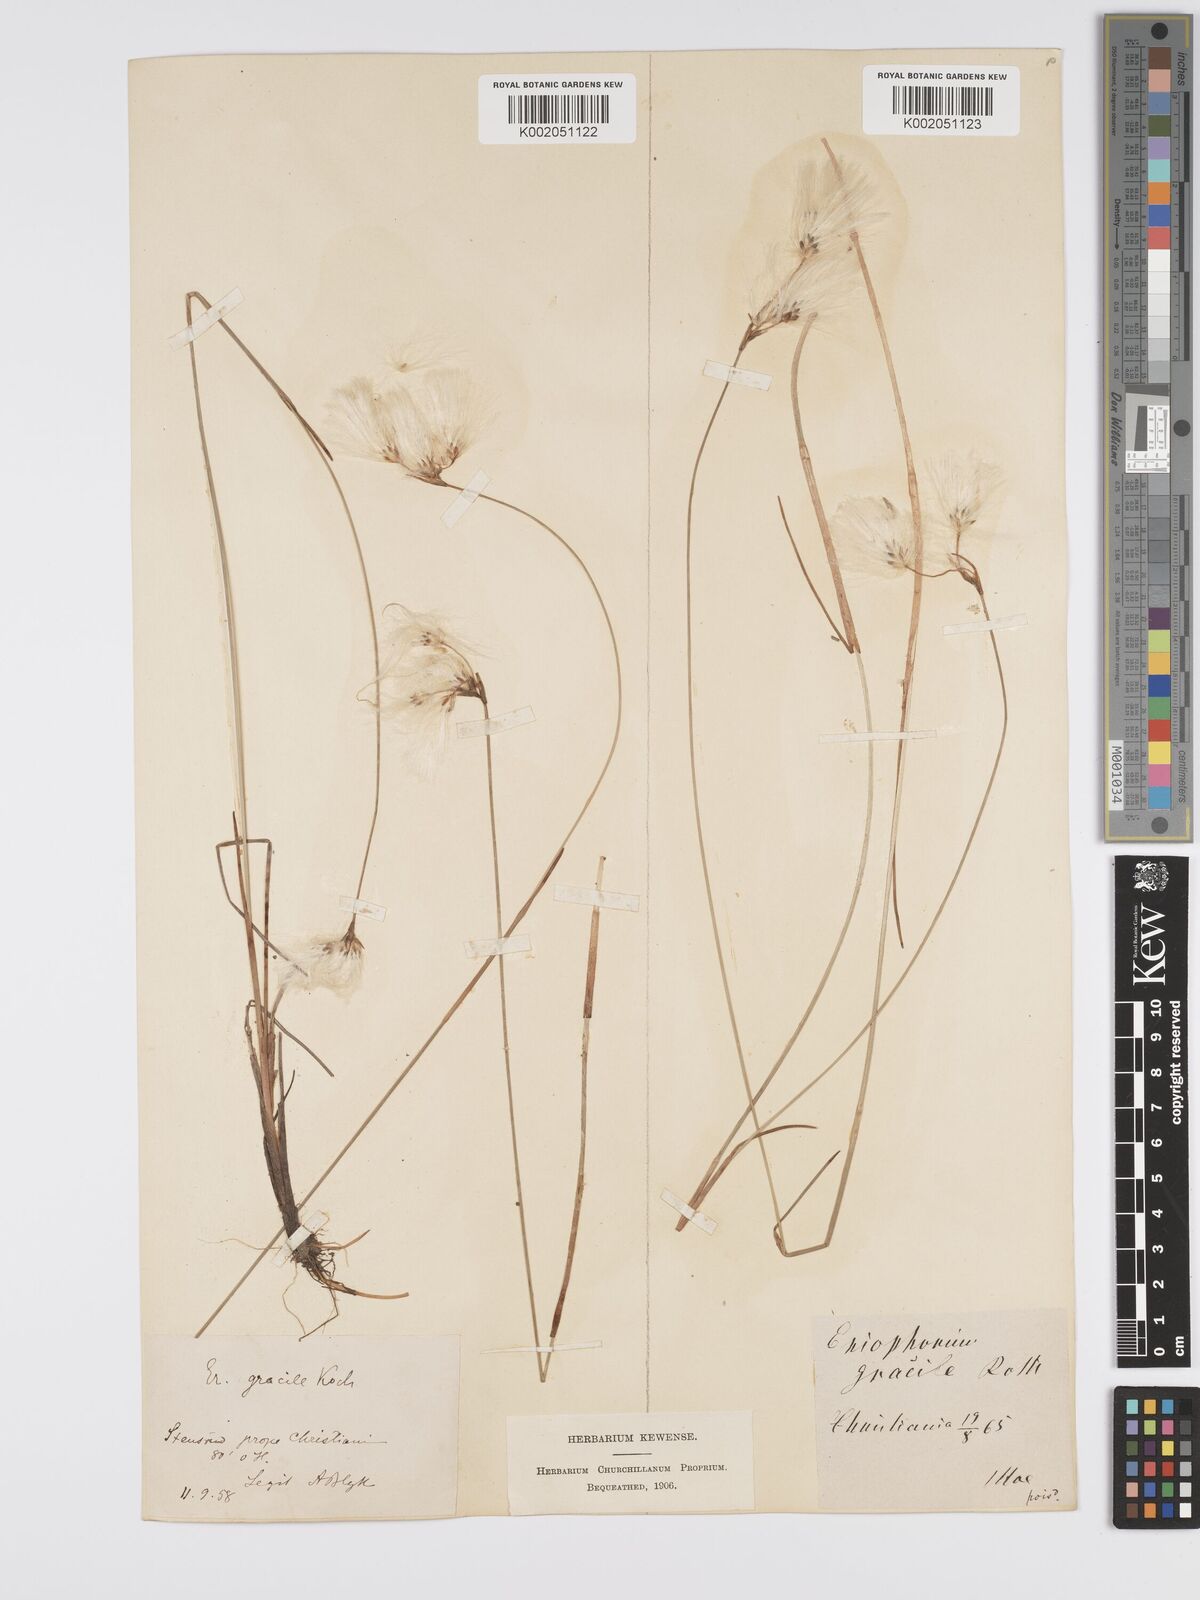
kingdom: Plantae
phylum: Tracheophyta
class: Liliopsida
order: Poales
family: Cyperaceae
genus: Eriophorum
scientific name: Eriophorum gracile
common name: Slender cottongrass
